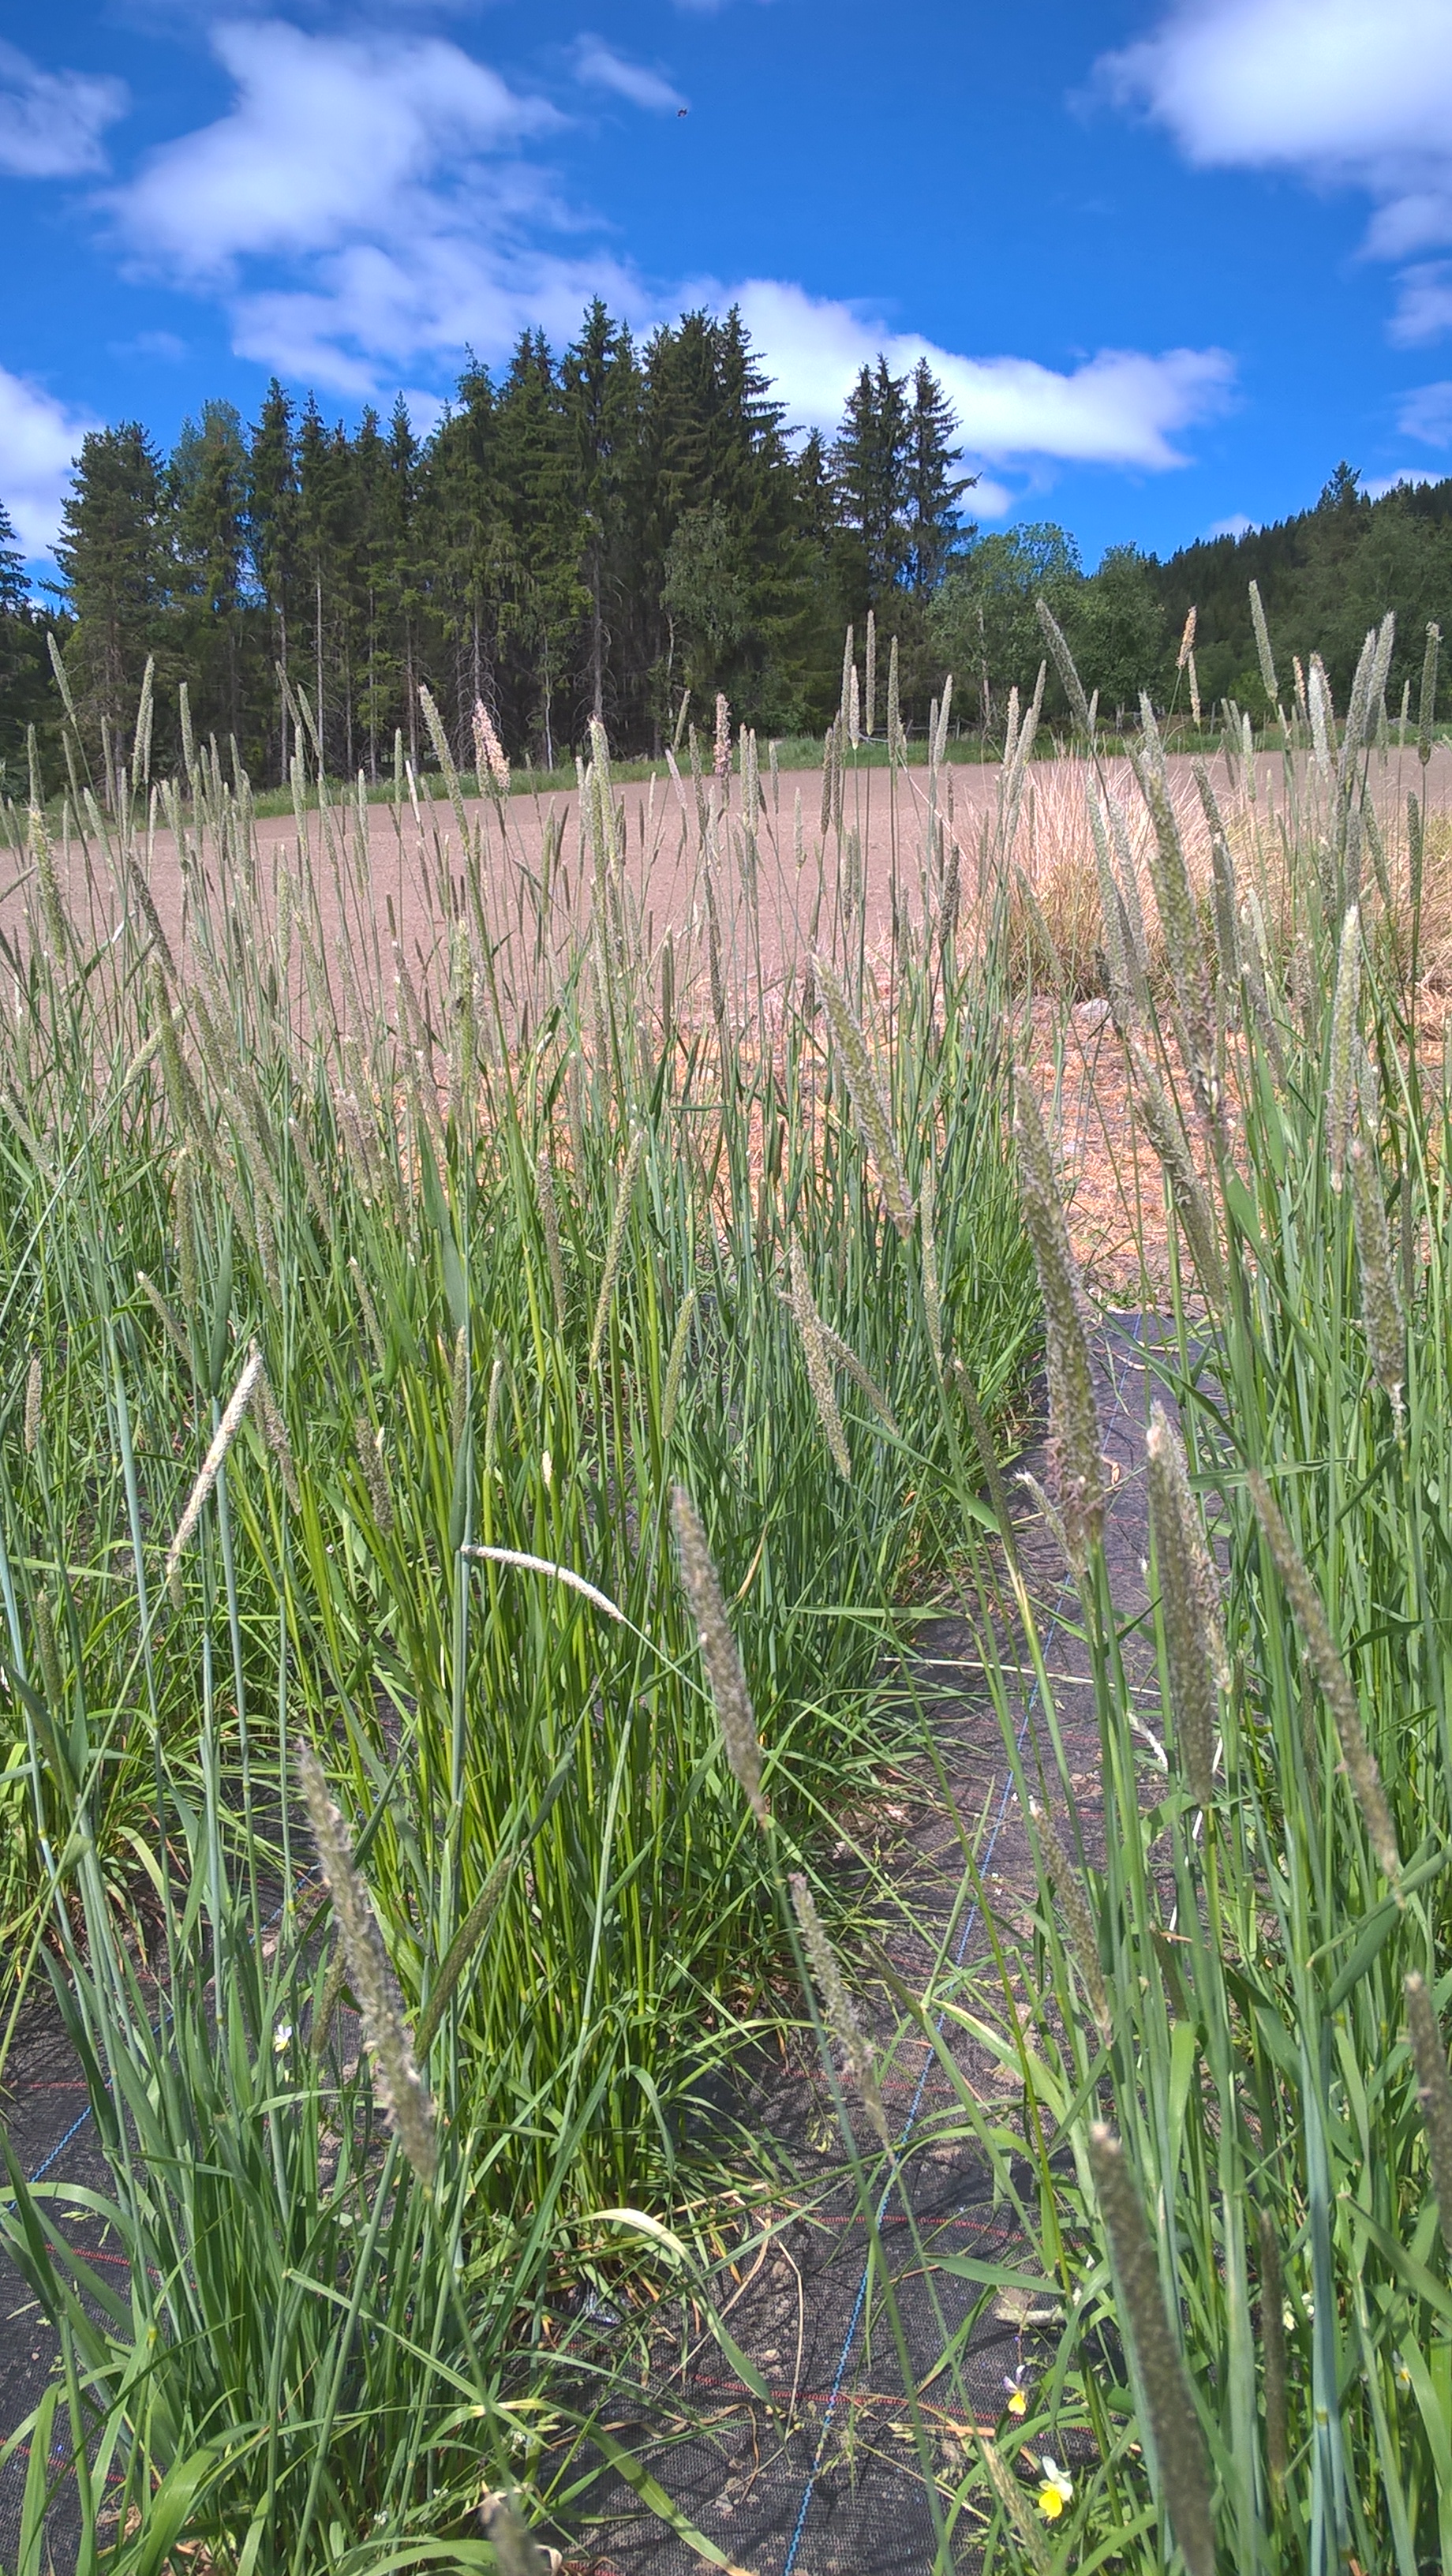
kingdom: Plantae
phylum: Tracheophyta
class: Liliopsida
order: Poales
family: Poaceae
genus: Alopecurus
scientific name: Alopecurus pratensis
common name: Meadow foxtail
